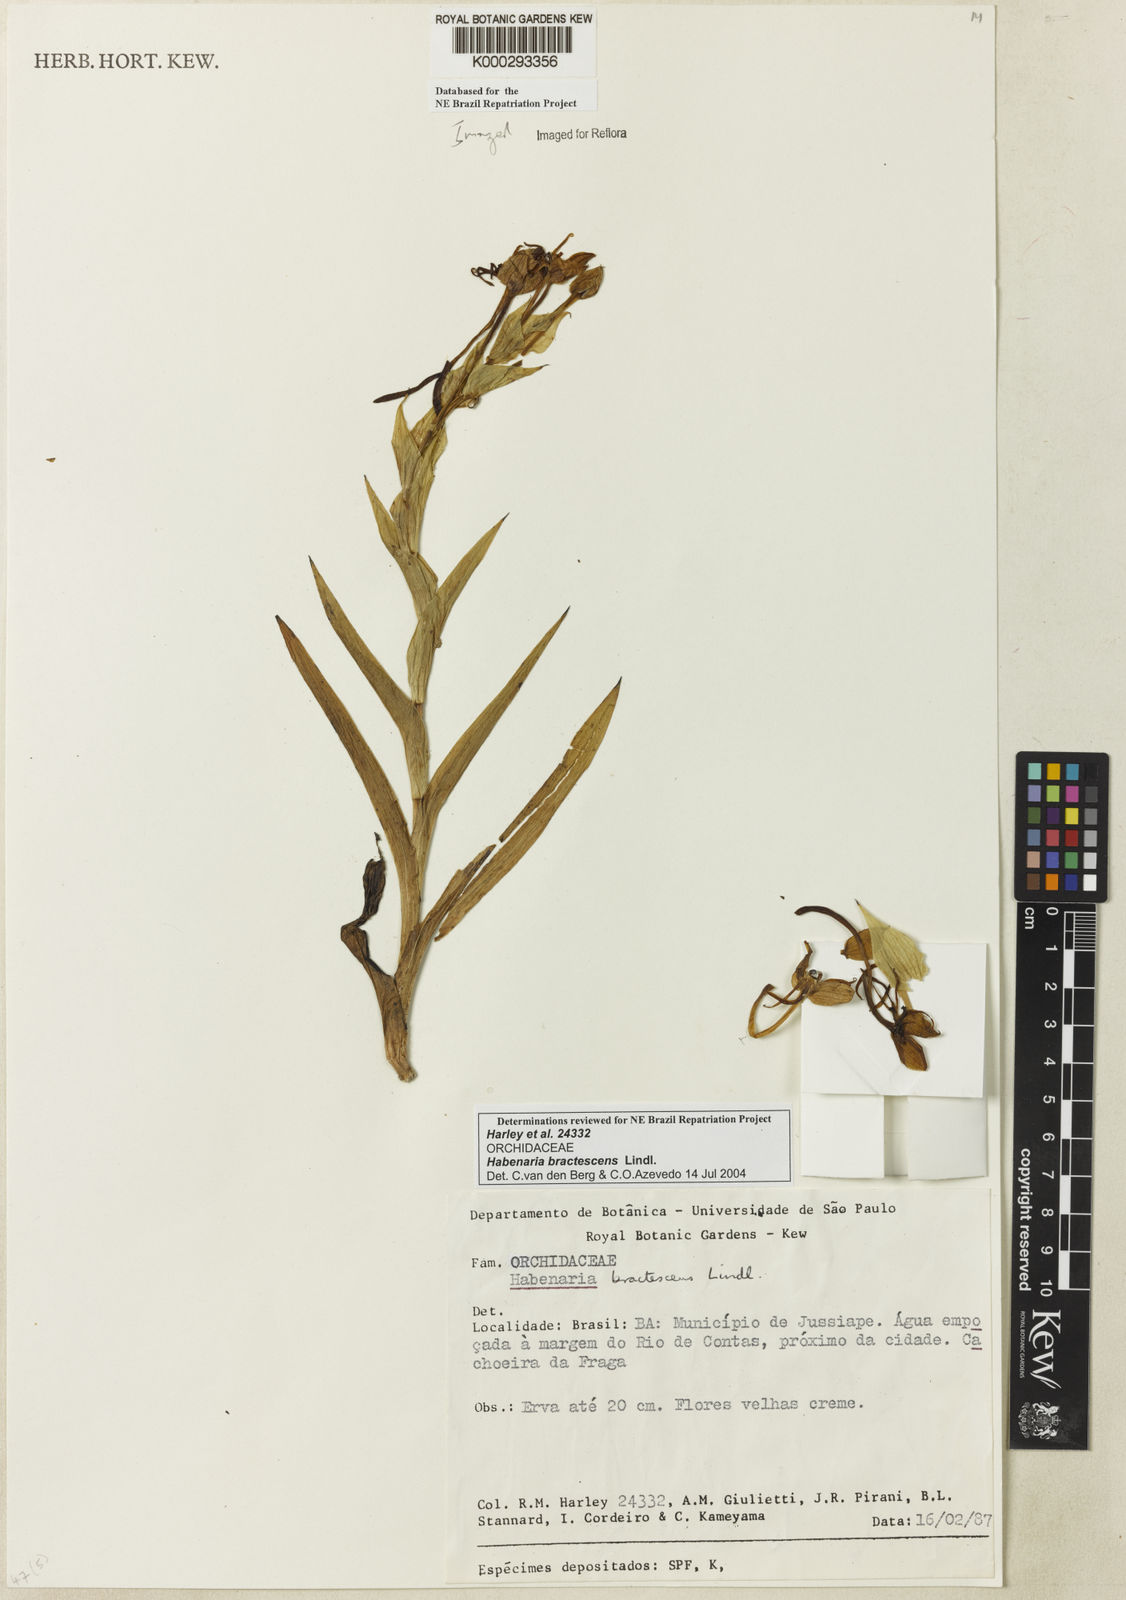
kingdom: Plantae
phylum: Tracheophyta
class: Liliopsida
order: Asparagales
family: Orchidaceae
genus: Habenaria
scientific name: Habenaria bractescens
